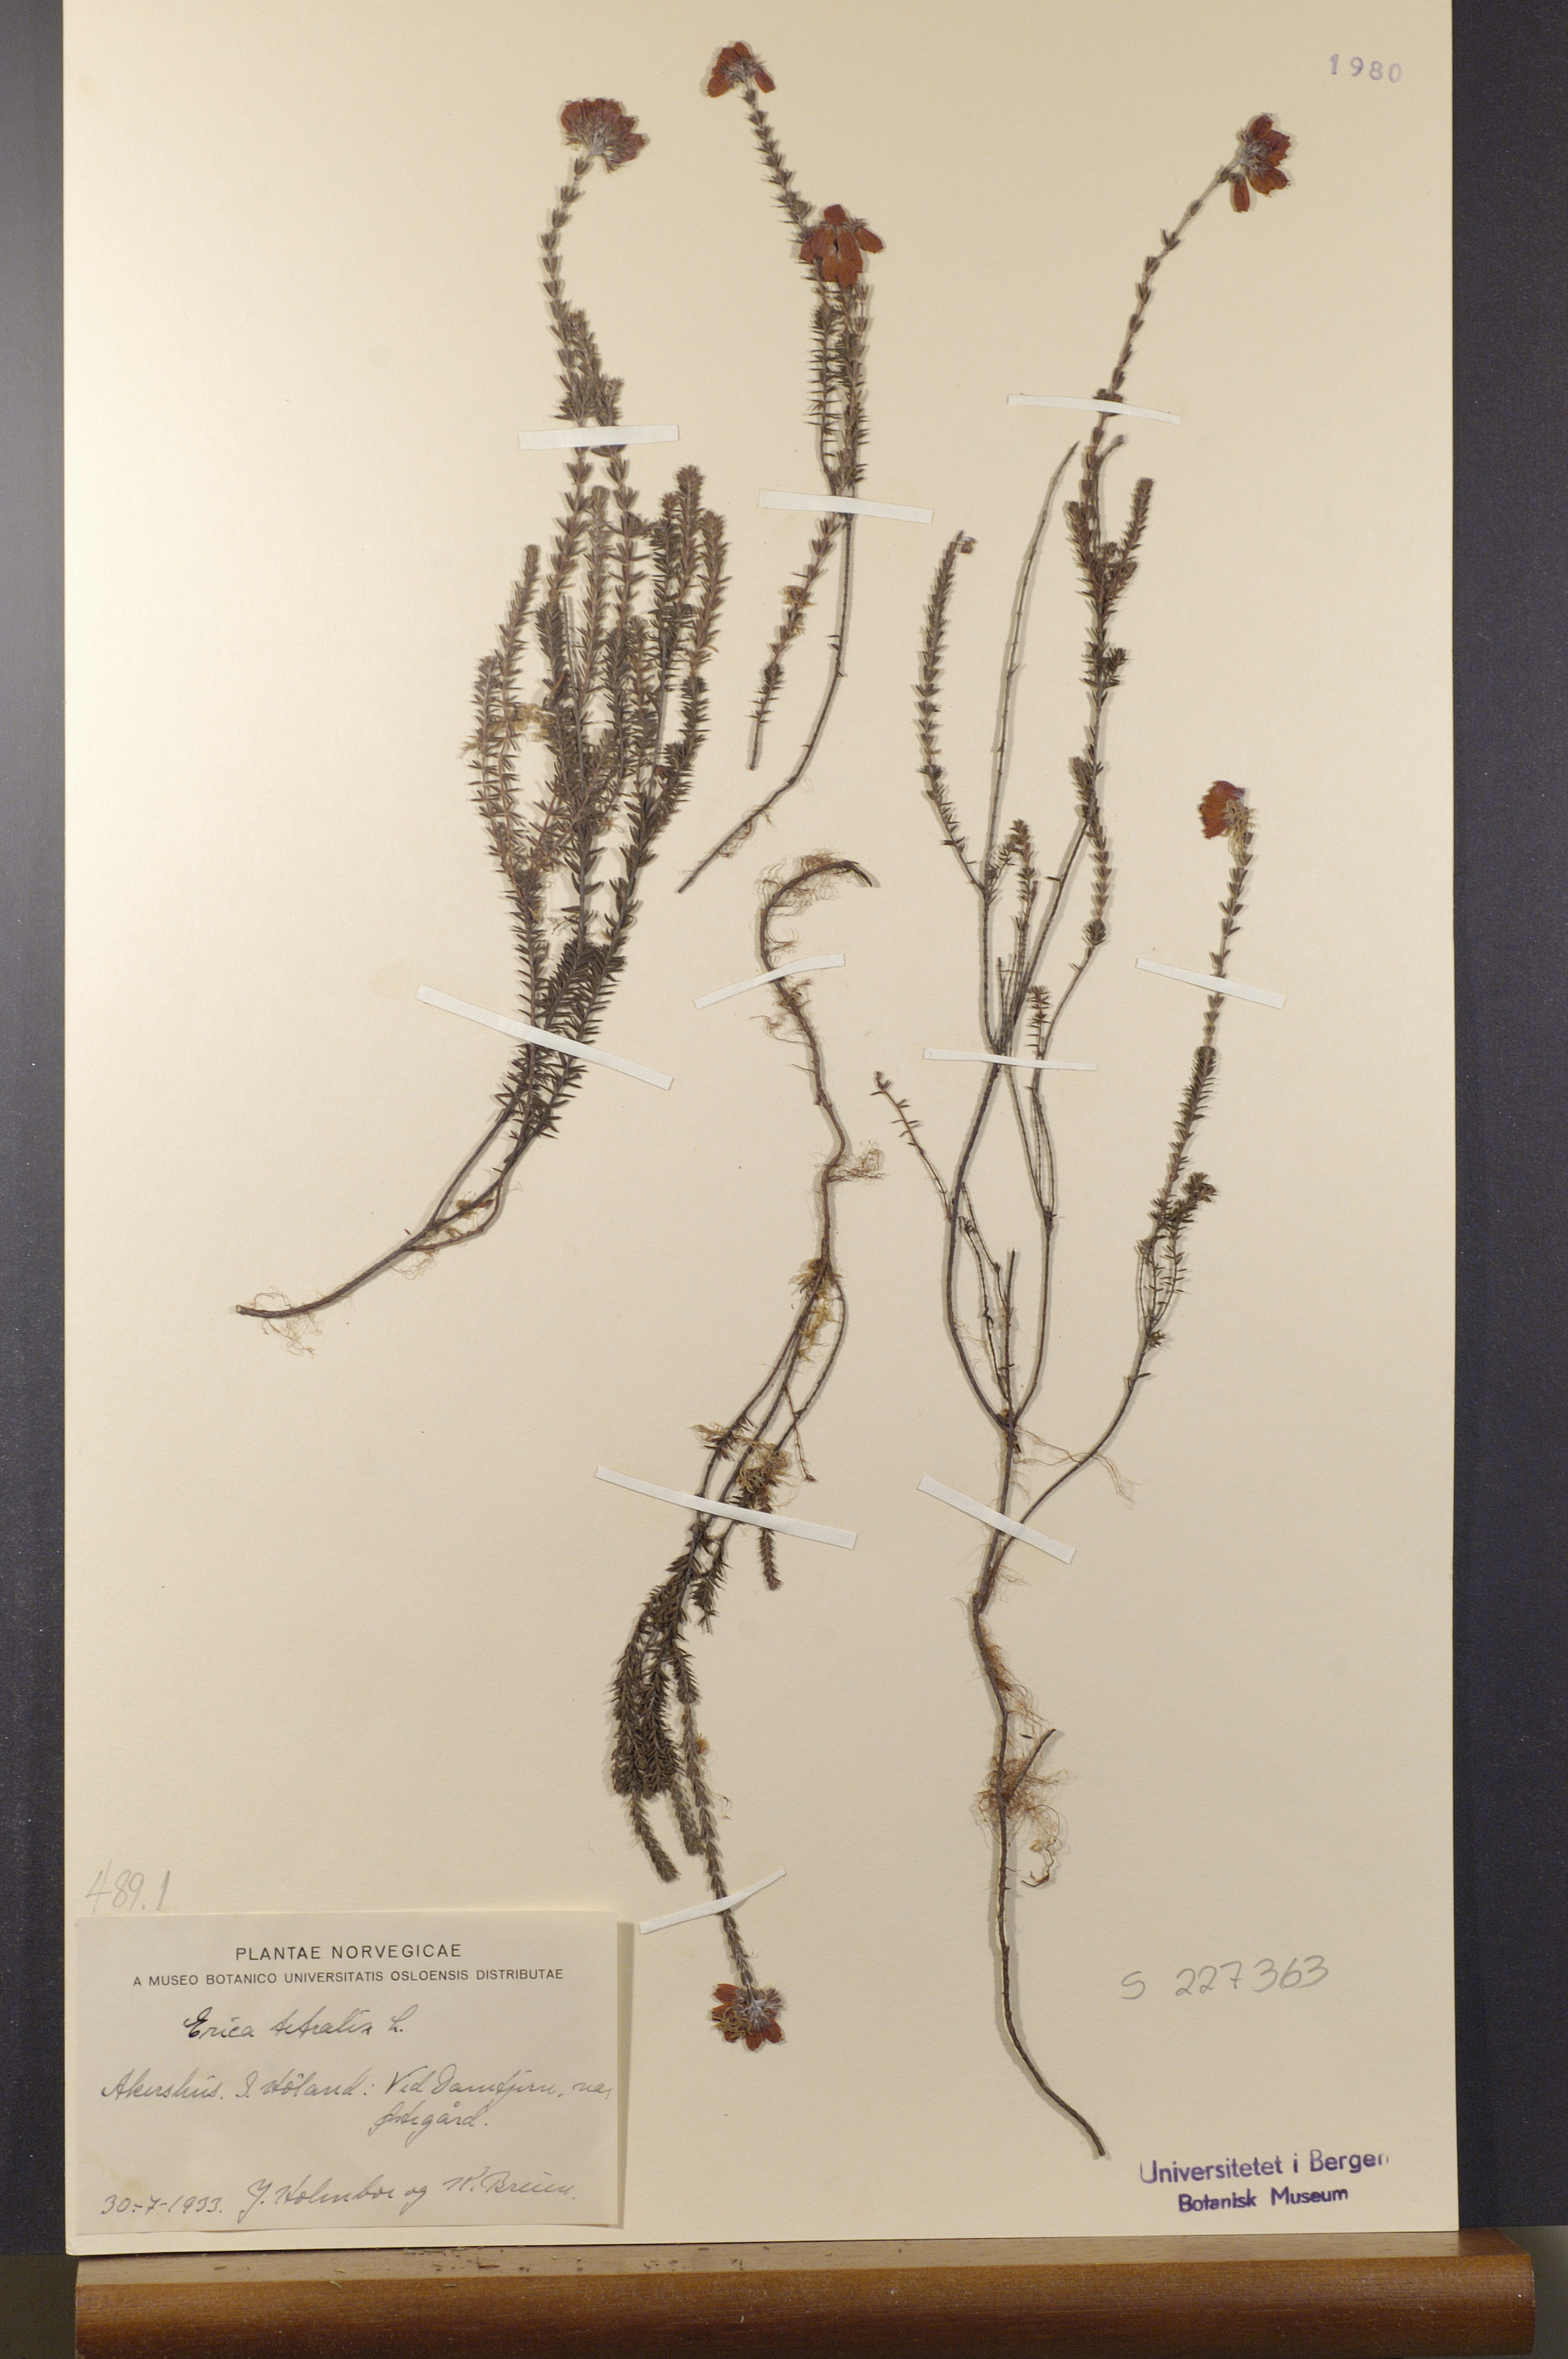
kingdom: Plantae
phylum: Tracheophyta
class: Magnoliopsida
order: Ericales
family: Ericaceae
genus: Erica
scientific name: Erica tetralix
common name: Cross-leaved heath
